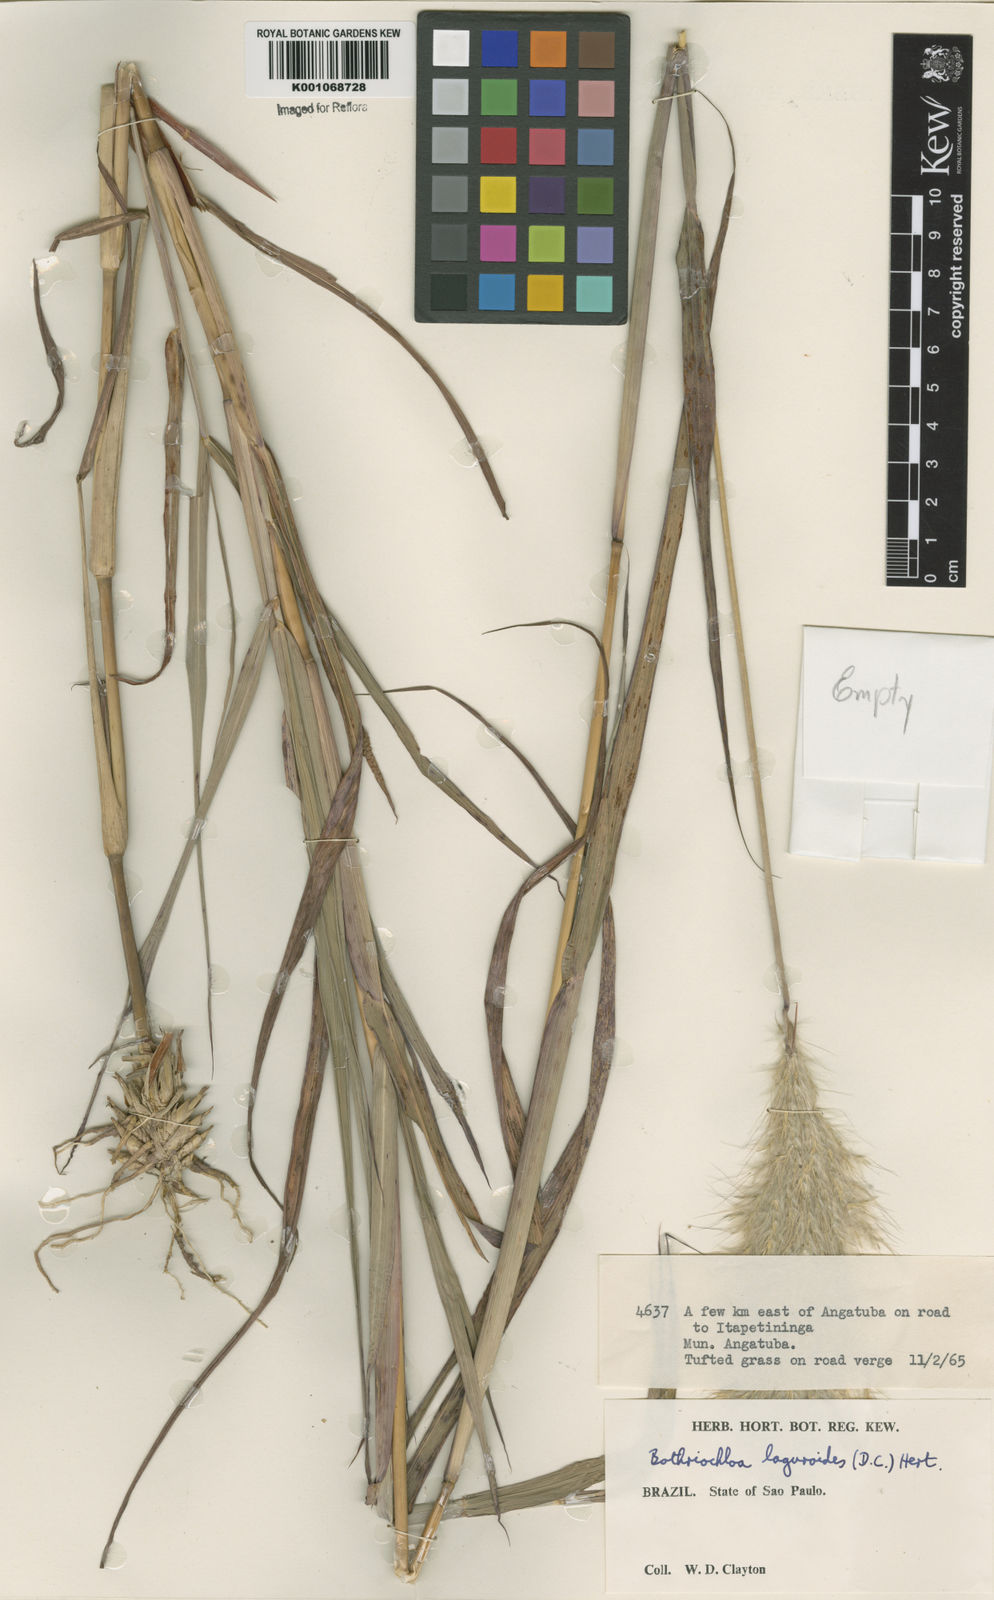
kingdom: Plantae
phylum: Tracheophyta
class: Liliopsida
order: Poales
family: Poaceae
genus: Bothriochloa
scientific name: Bothriochloa
